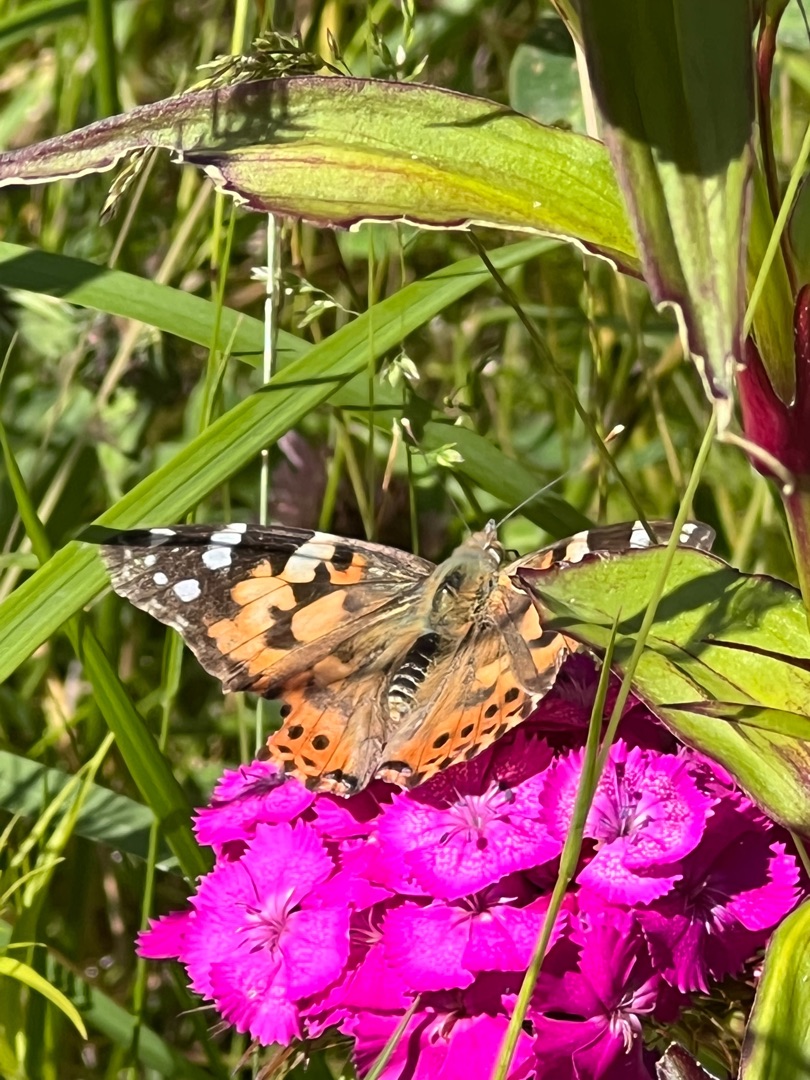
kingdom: Animalia
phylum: Arthropoda
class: Insecta
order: Lepidoptera
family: Nymphalidae
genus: Vanessa
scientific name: Vanessa cardui
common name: Tidselsommerfugl
